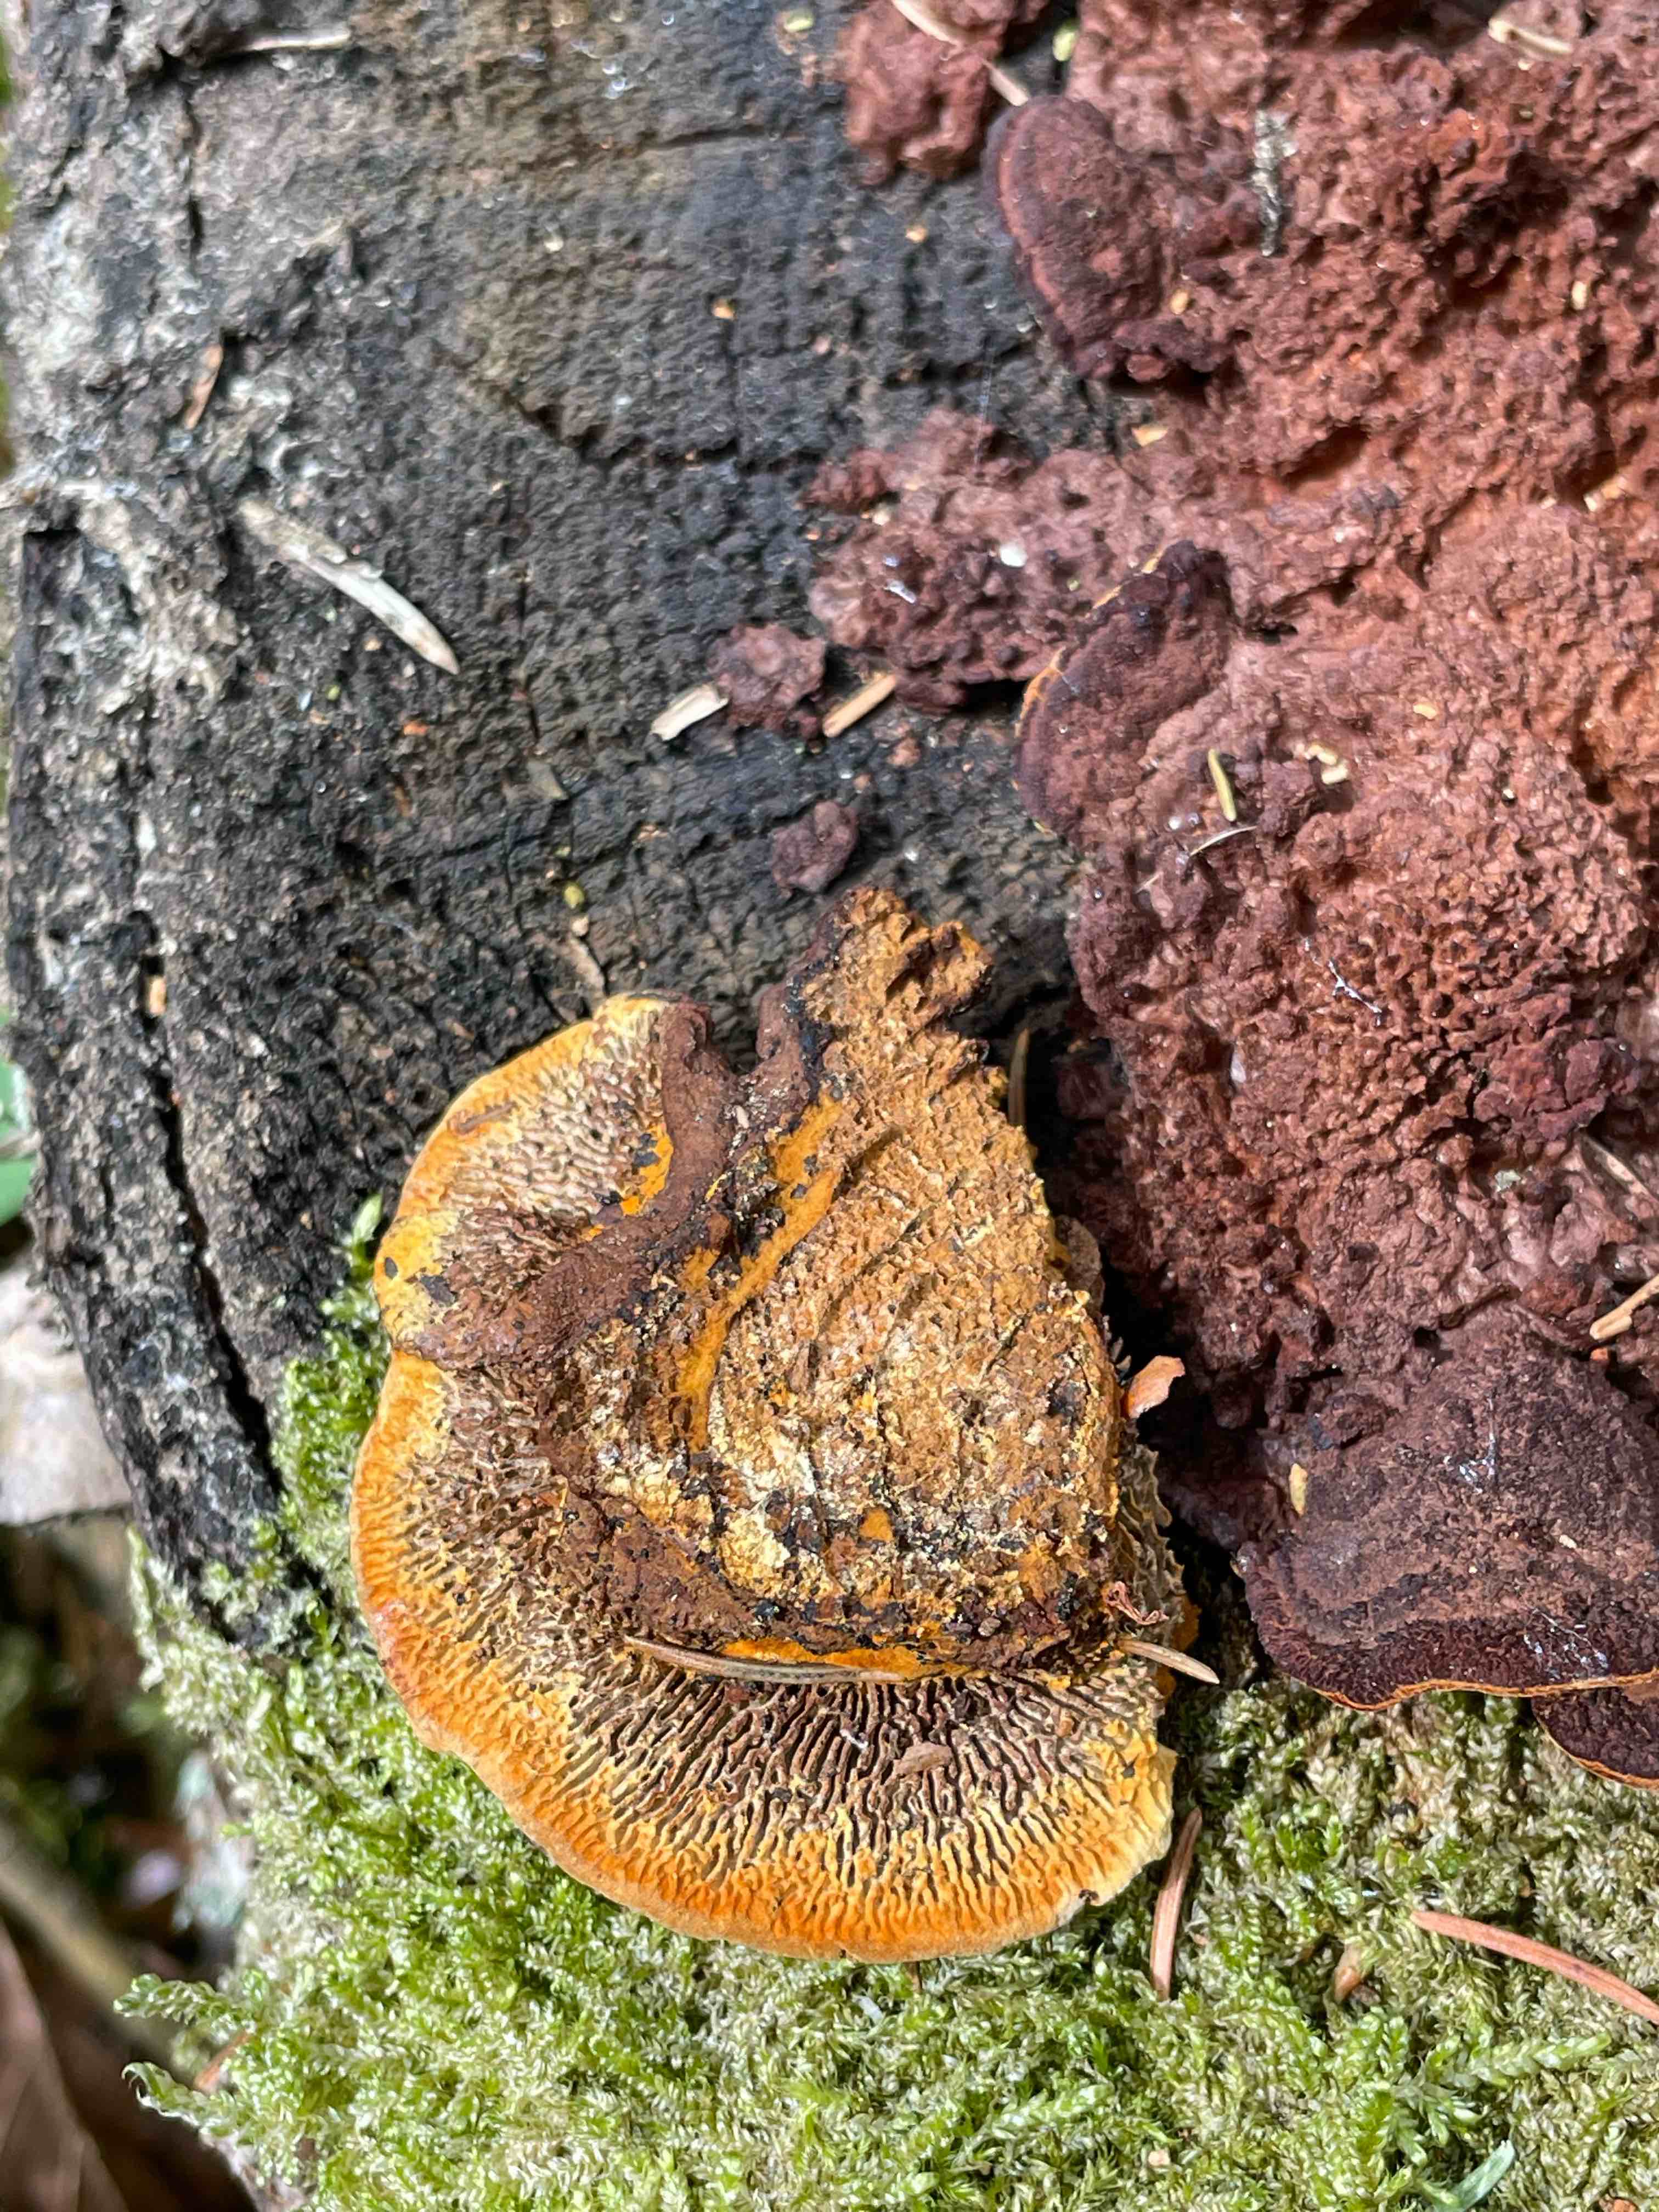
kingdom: Fungi
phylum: Basidiomycota
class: Agaricomycetes
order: Gloeophyllales
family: Gloeophyllaceae
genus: Gloeophyllum
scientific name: Gloeophyllum sepiarium
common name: fyrre-korkhat
